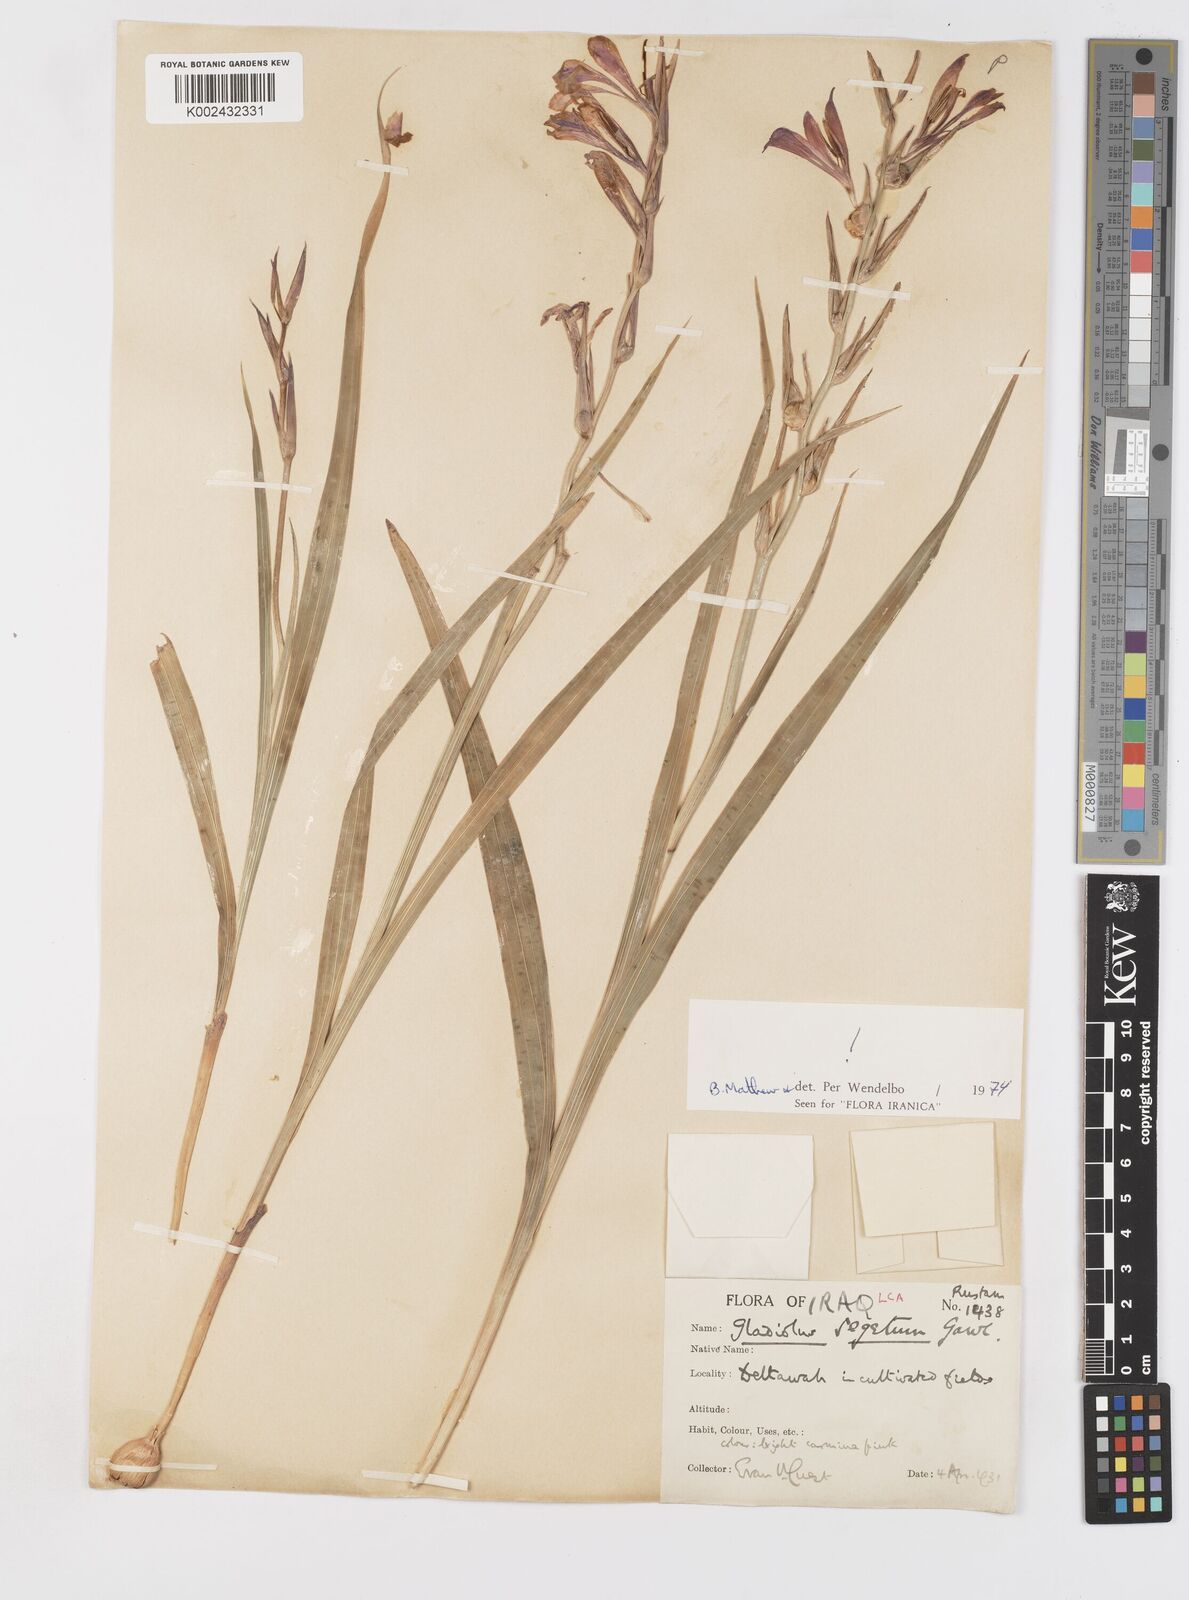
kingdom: Plantae
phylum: Tracheophyta
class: Liliopsida
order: Asparagales
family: Iridaceae
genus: Gladiolus
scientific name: Gladiolus italicus
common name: Field gladiolus
